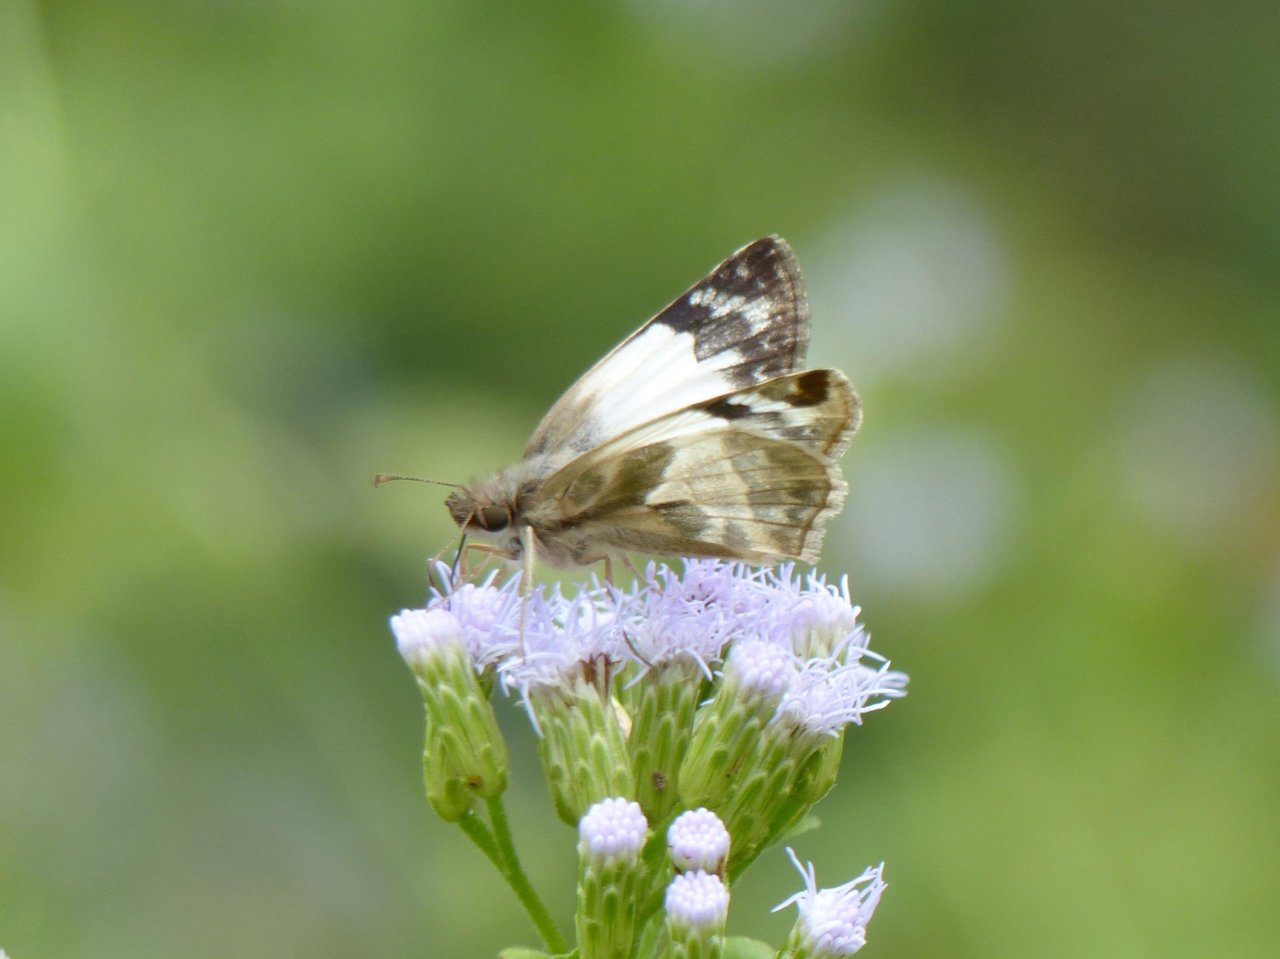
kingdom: Animalia
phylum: Arthropoda
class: Insecta
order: Lepidoptera
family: Hesperiidae
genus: Heliopetes
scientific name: Heliopetes laviana
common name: Laviana White-Skipper
